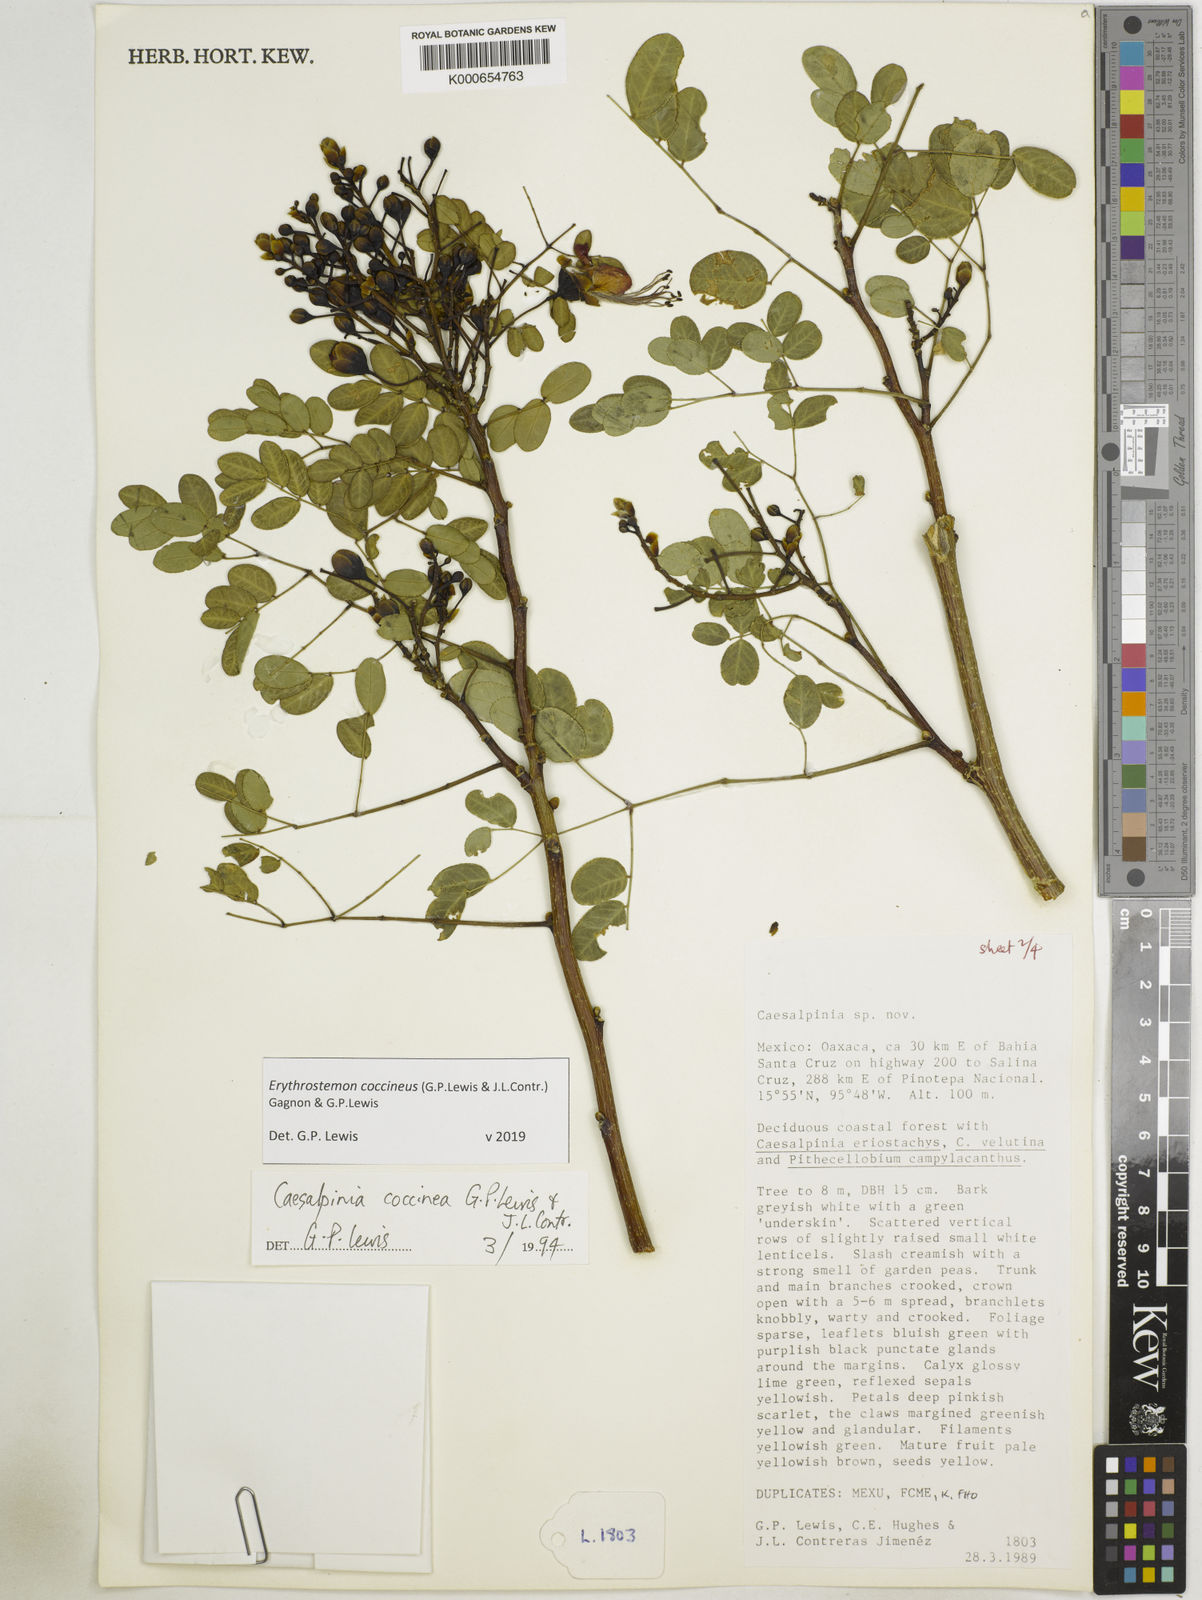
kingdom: Plantae
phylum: Tracheophyta
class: Magnoliopsida
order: Fabales
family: Fabaceae
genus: Erythrostemon
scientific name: Erythrostemon coccineus
